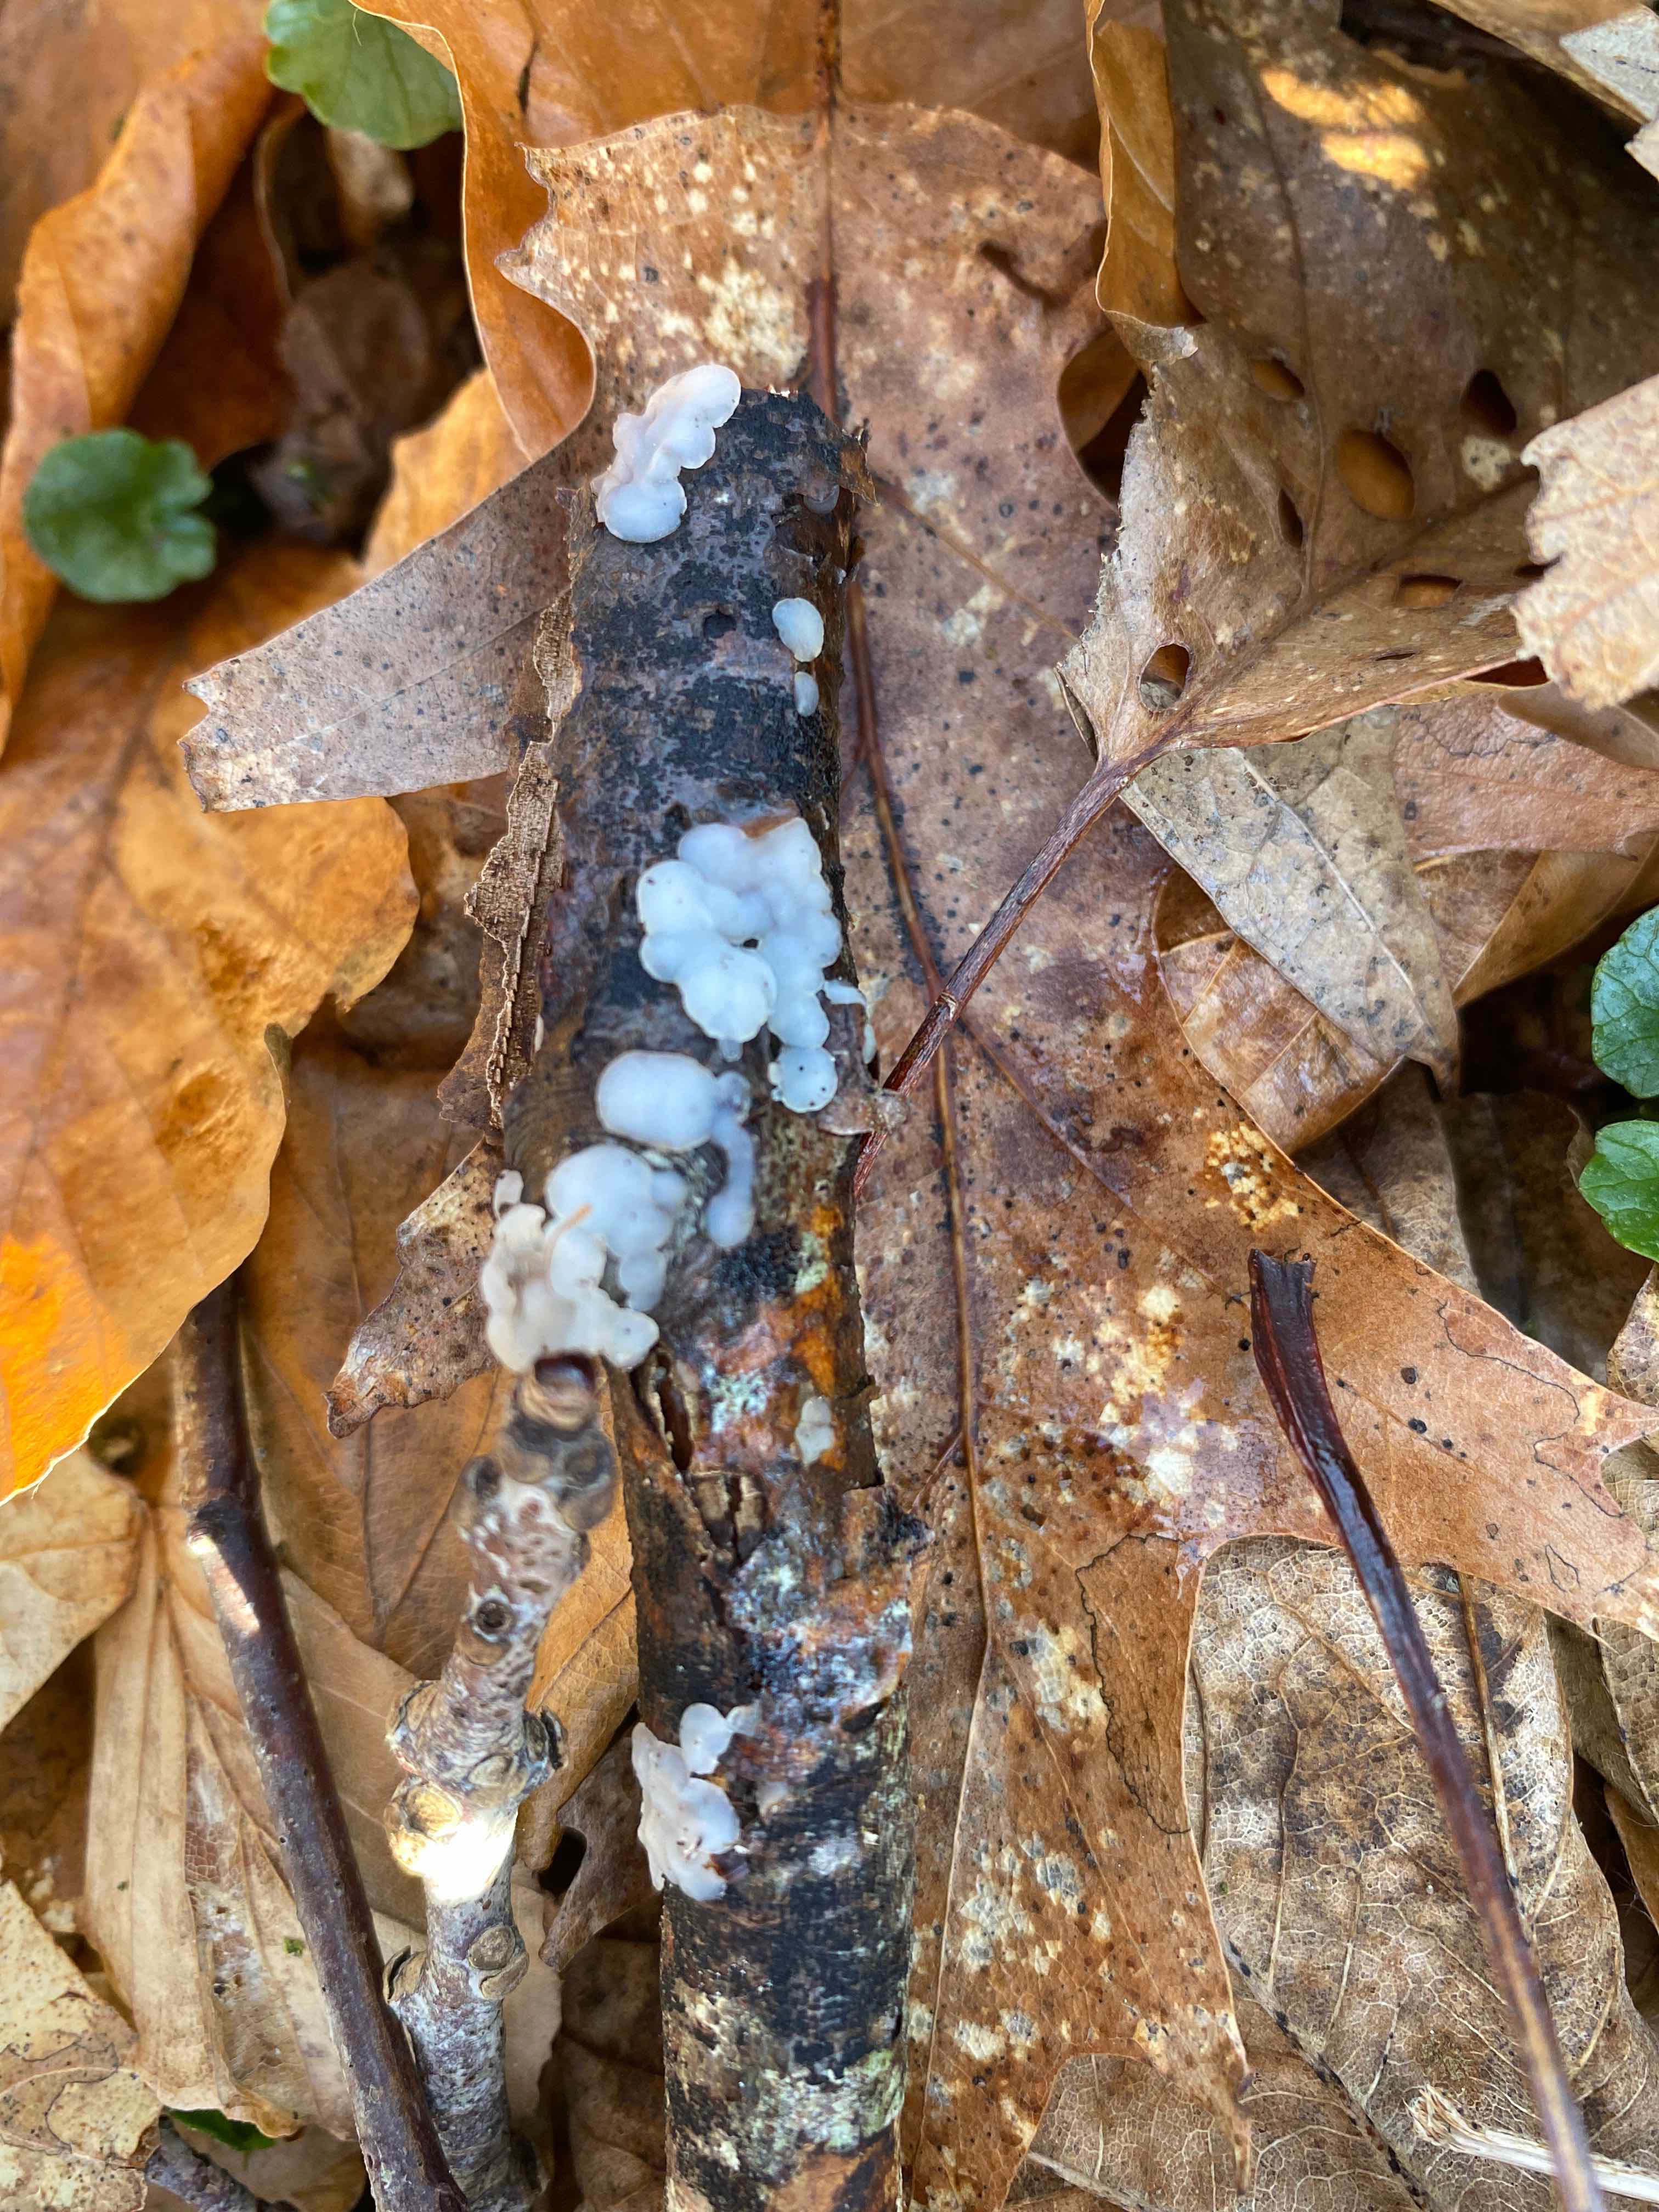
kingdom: Fungi
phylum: Basidiomycota
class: Agaricomycetes
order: Auriculariales
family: Auriculariaceae
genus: Exidia
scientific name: Exidia thuretiana
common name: hvidlig bævretop
